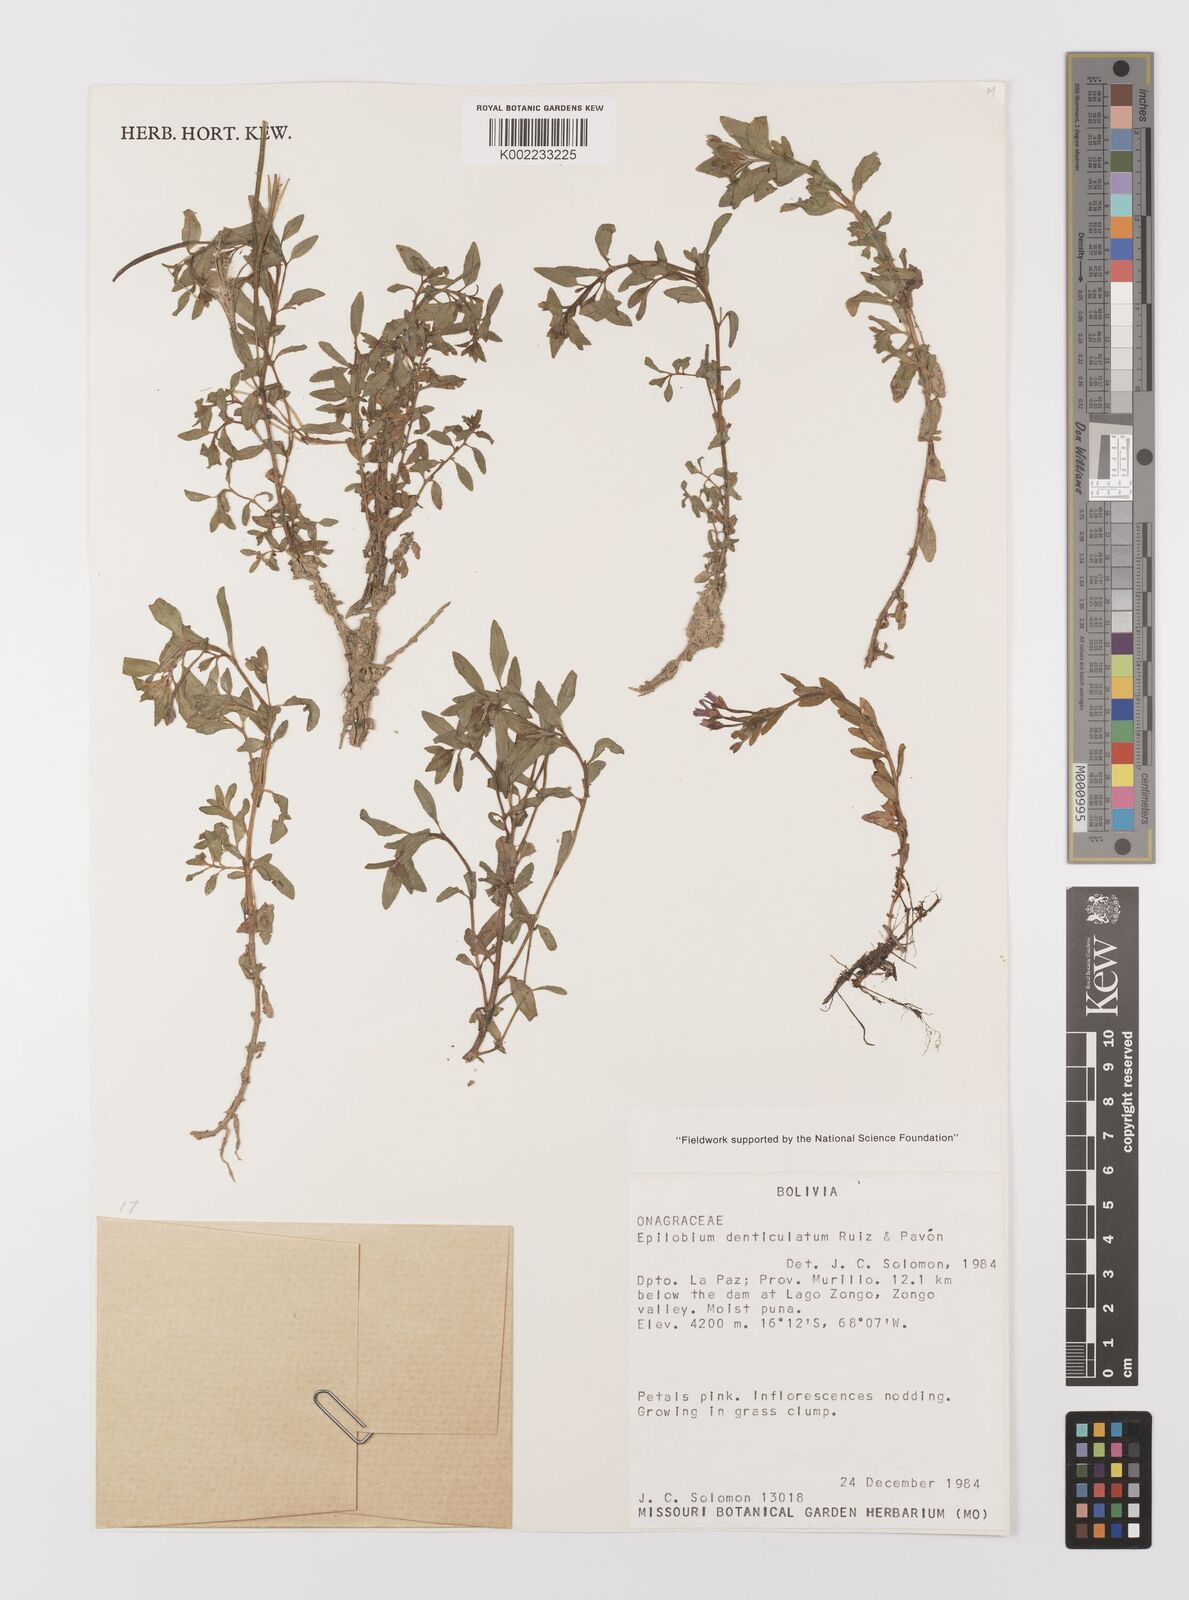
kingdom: Plantae
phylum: Tracheophyta
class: Magnoliopsida
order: Myrtales
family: Onagraceae
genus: Epilobium
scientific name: Epilobium denticulatum
